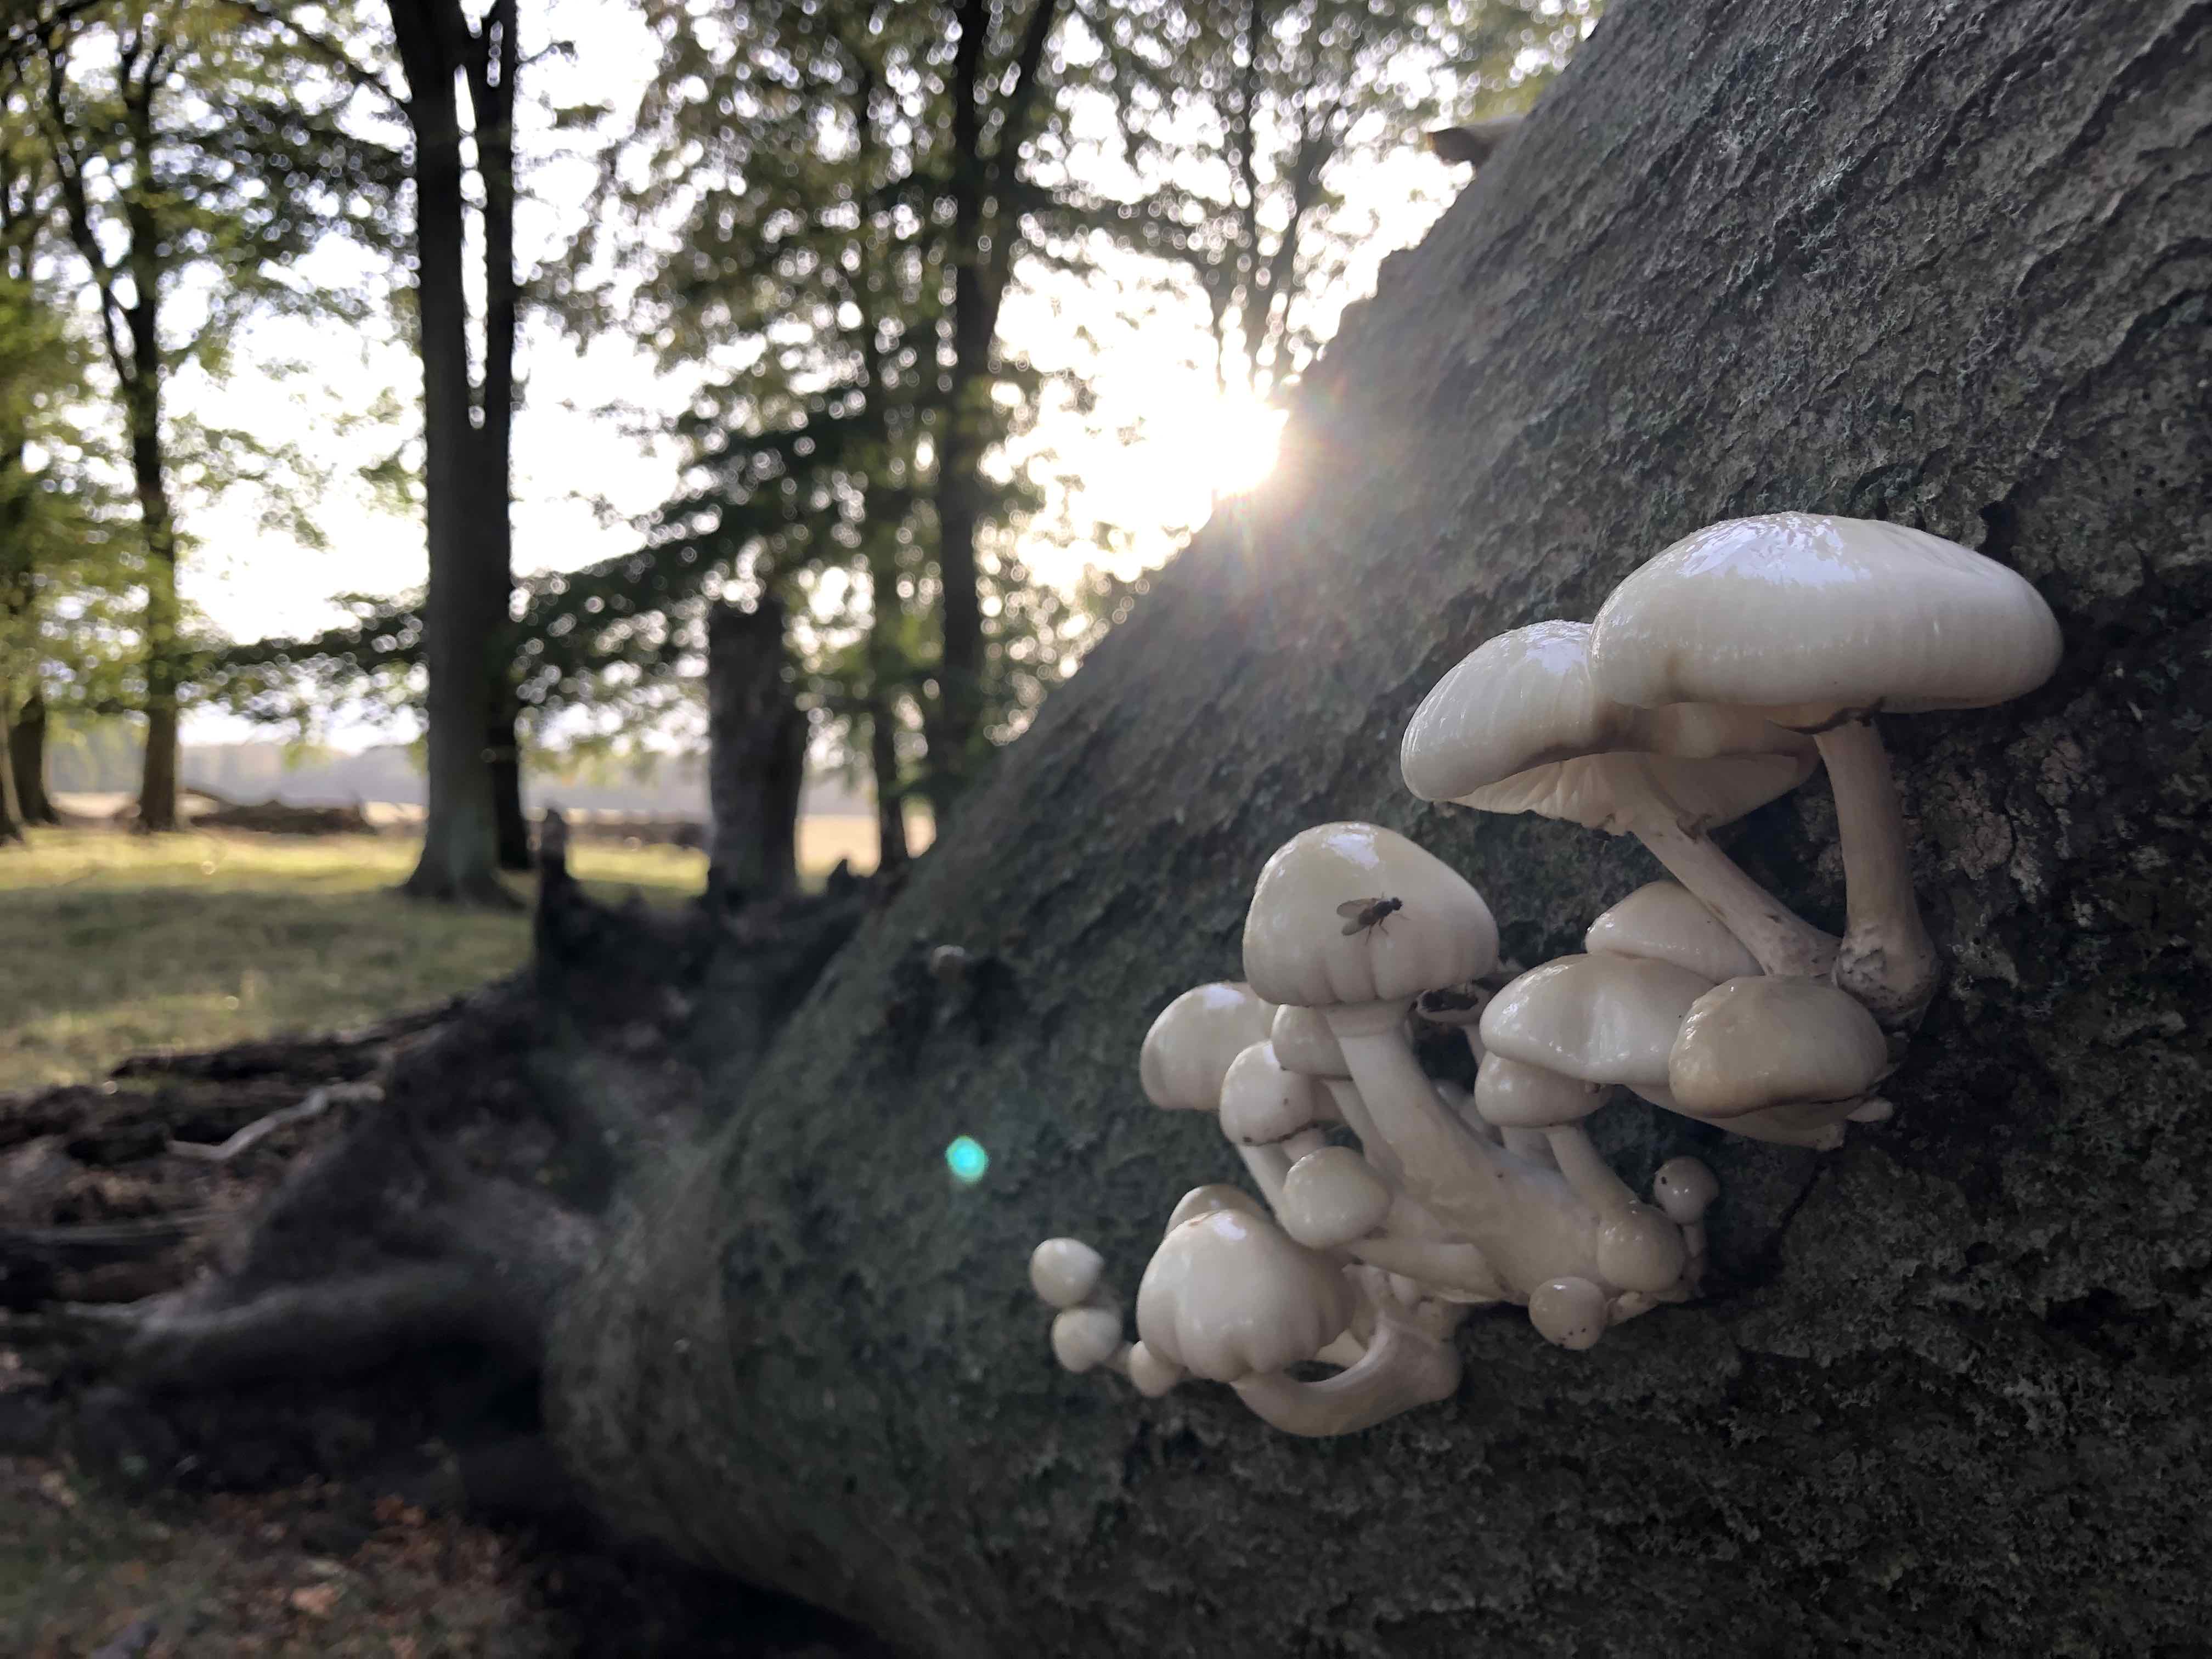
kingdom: Fungi
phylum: Basidiomycota
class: Agaricomycetes
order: Agaricales
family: Physalacriaceae
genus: Mucidula
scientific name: Mucidula mucida
